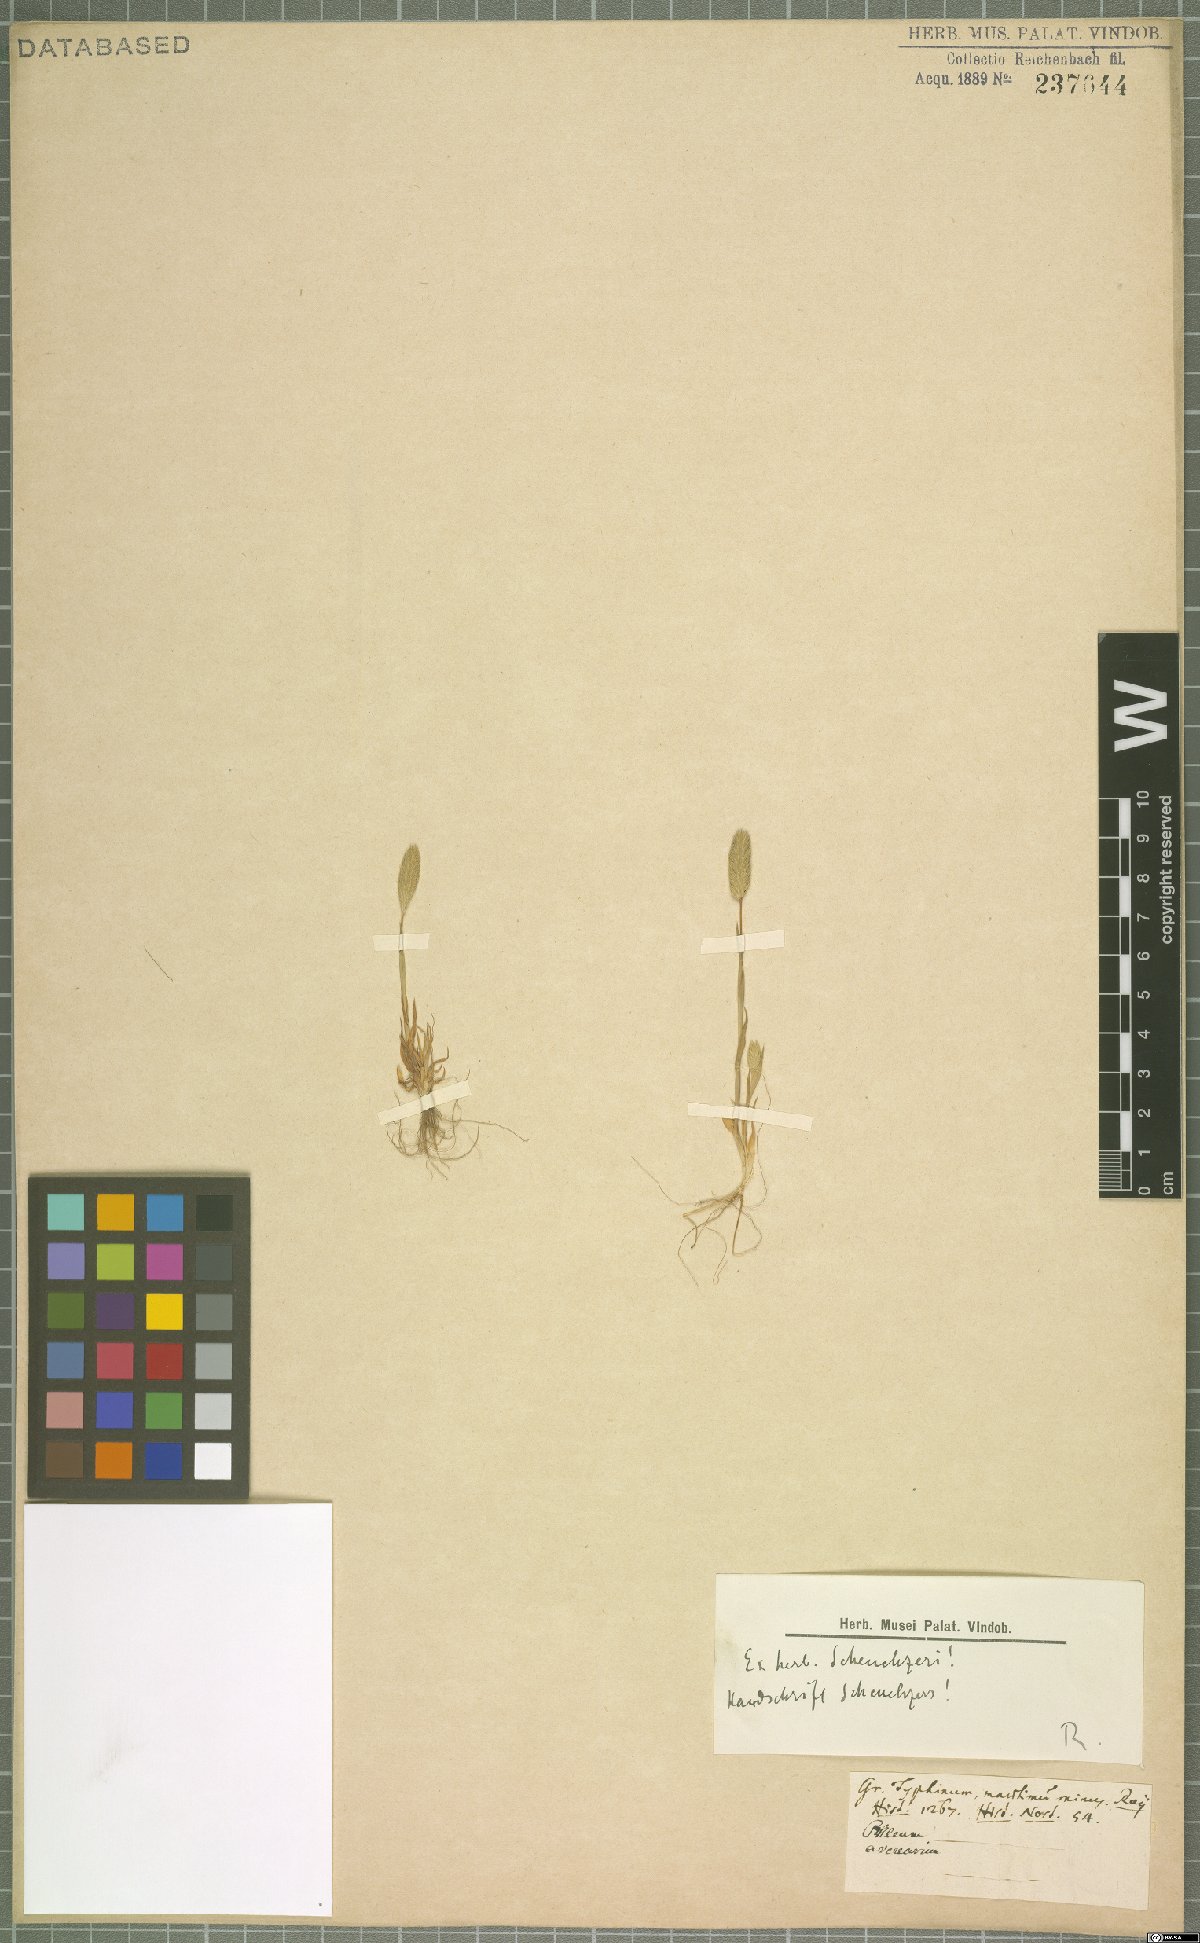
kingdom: Plantae
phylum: Tracheophyta
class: Liliopsida
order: Poales
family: Poaceae
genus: Phleum
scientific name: Phleum arenarium
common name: Sand cat's-tail
